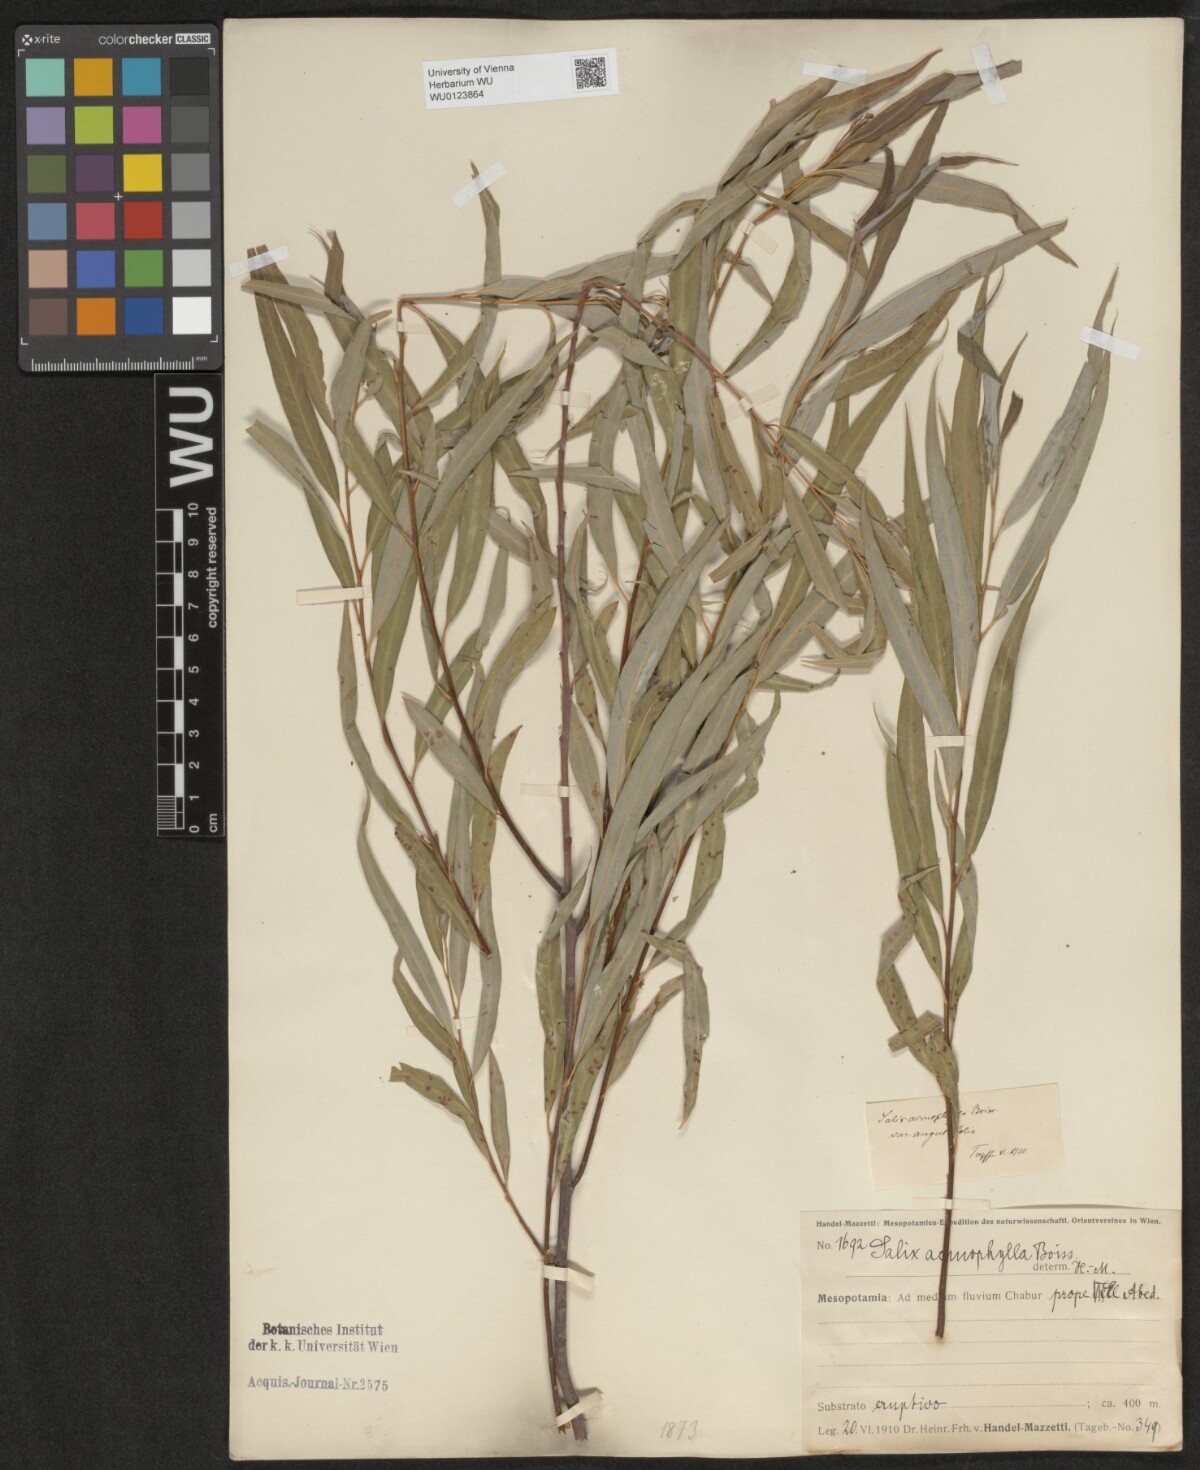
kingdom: Plantae
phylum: Tracheophyta
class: Magnoliopsida
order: Malpighiales
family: Salicaceae
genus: Salix
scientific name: Salix acmophylla
